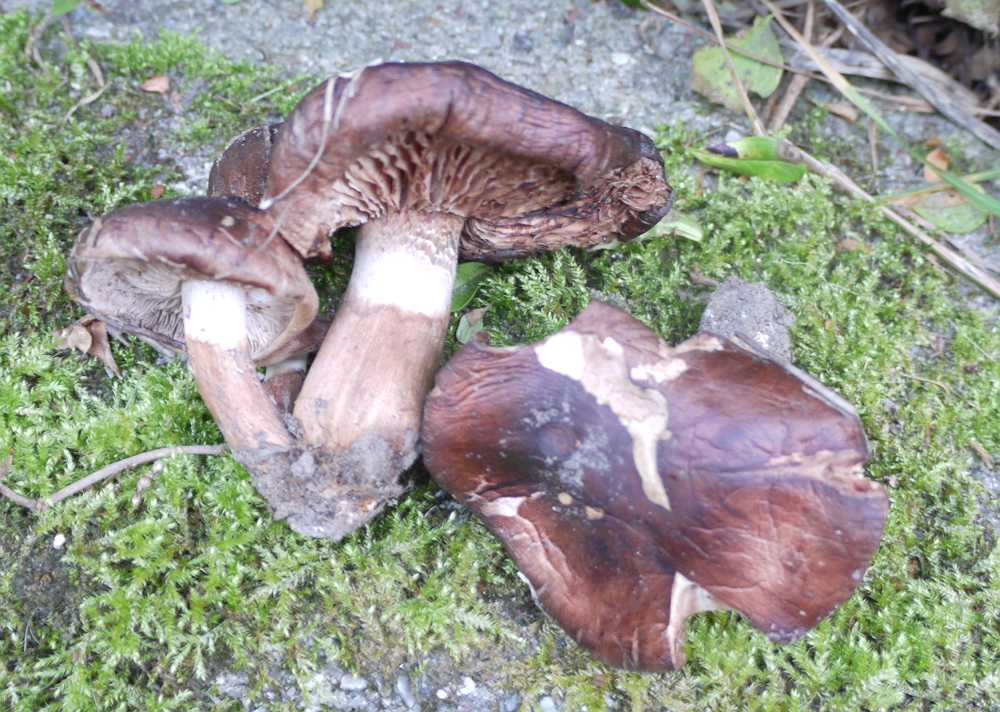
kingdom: Fungi
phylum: Basidiomycota
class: Agaricomycetes
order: Agaricales
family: Tricholomataceae
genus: Tricholoma
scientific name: Tricholoma fracticum
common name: hvidhalset ridderhat
